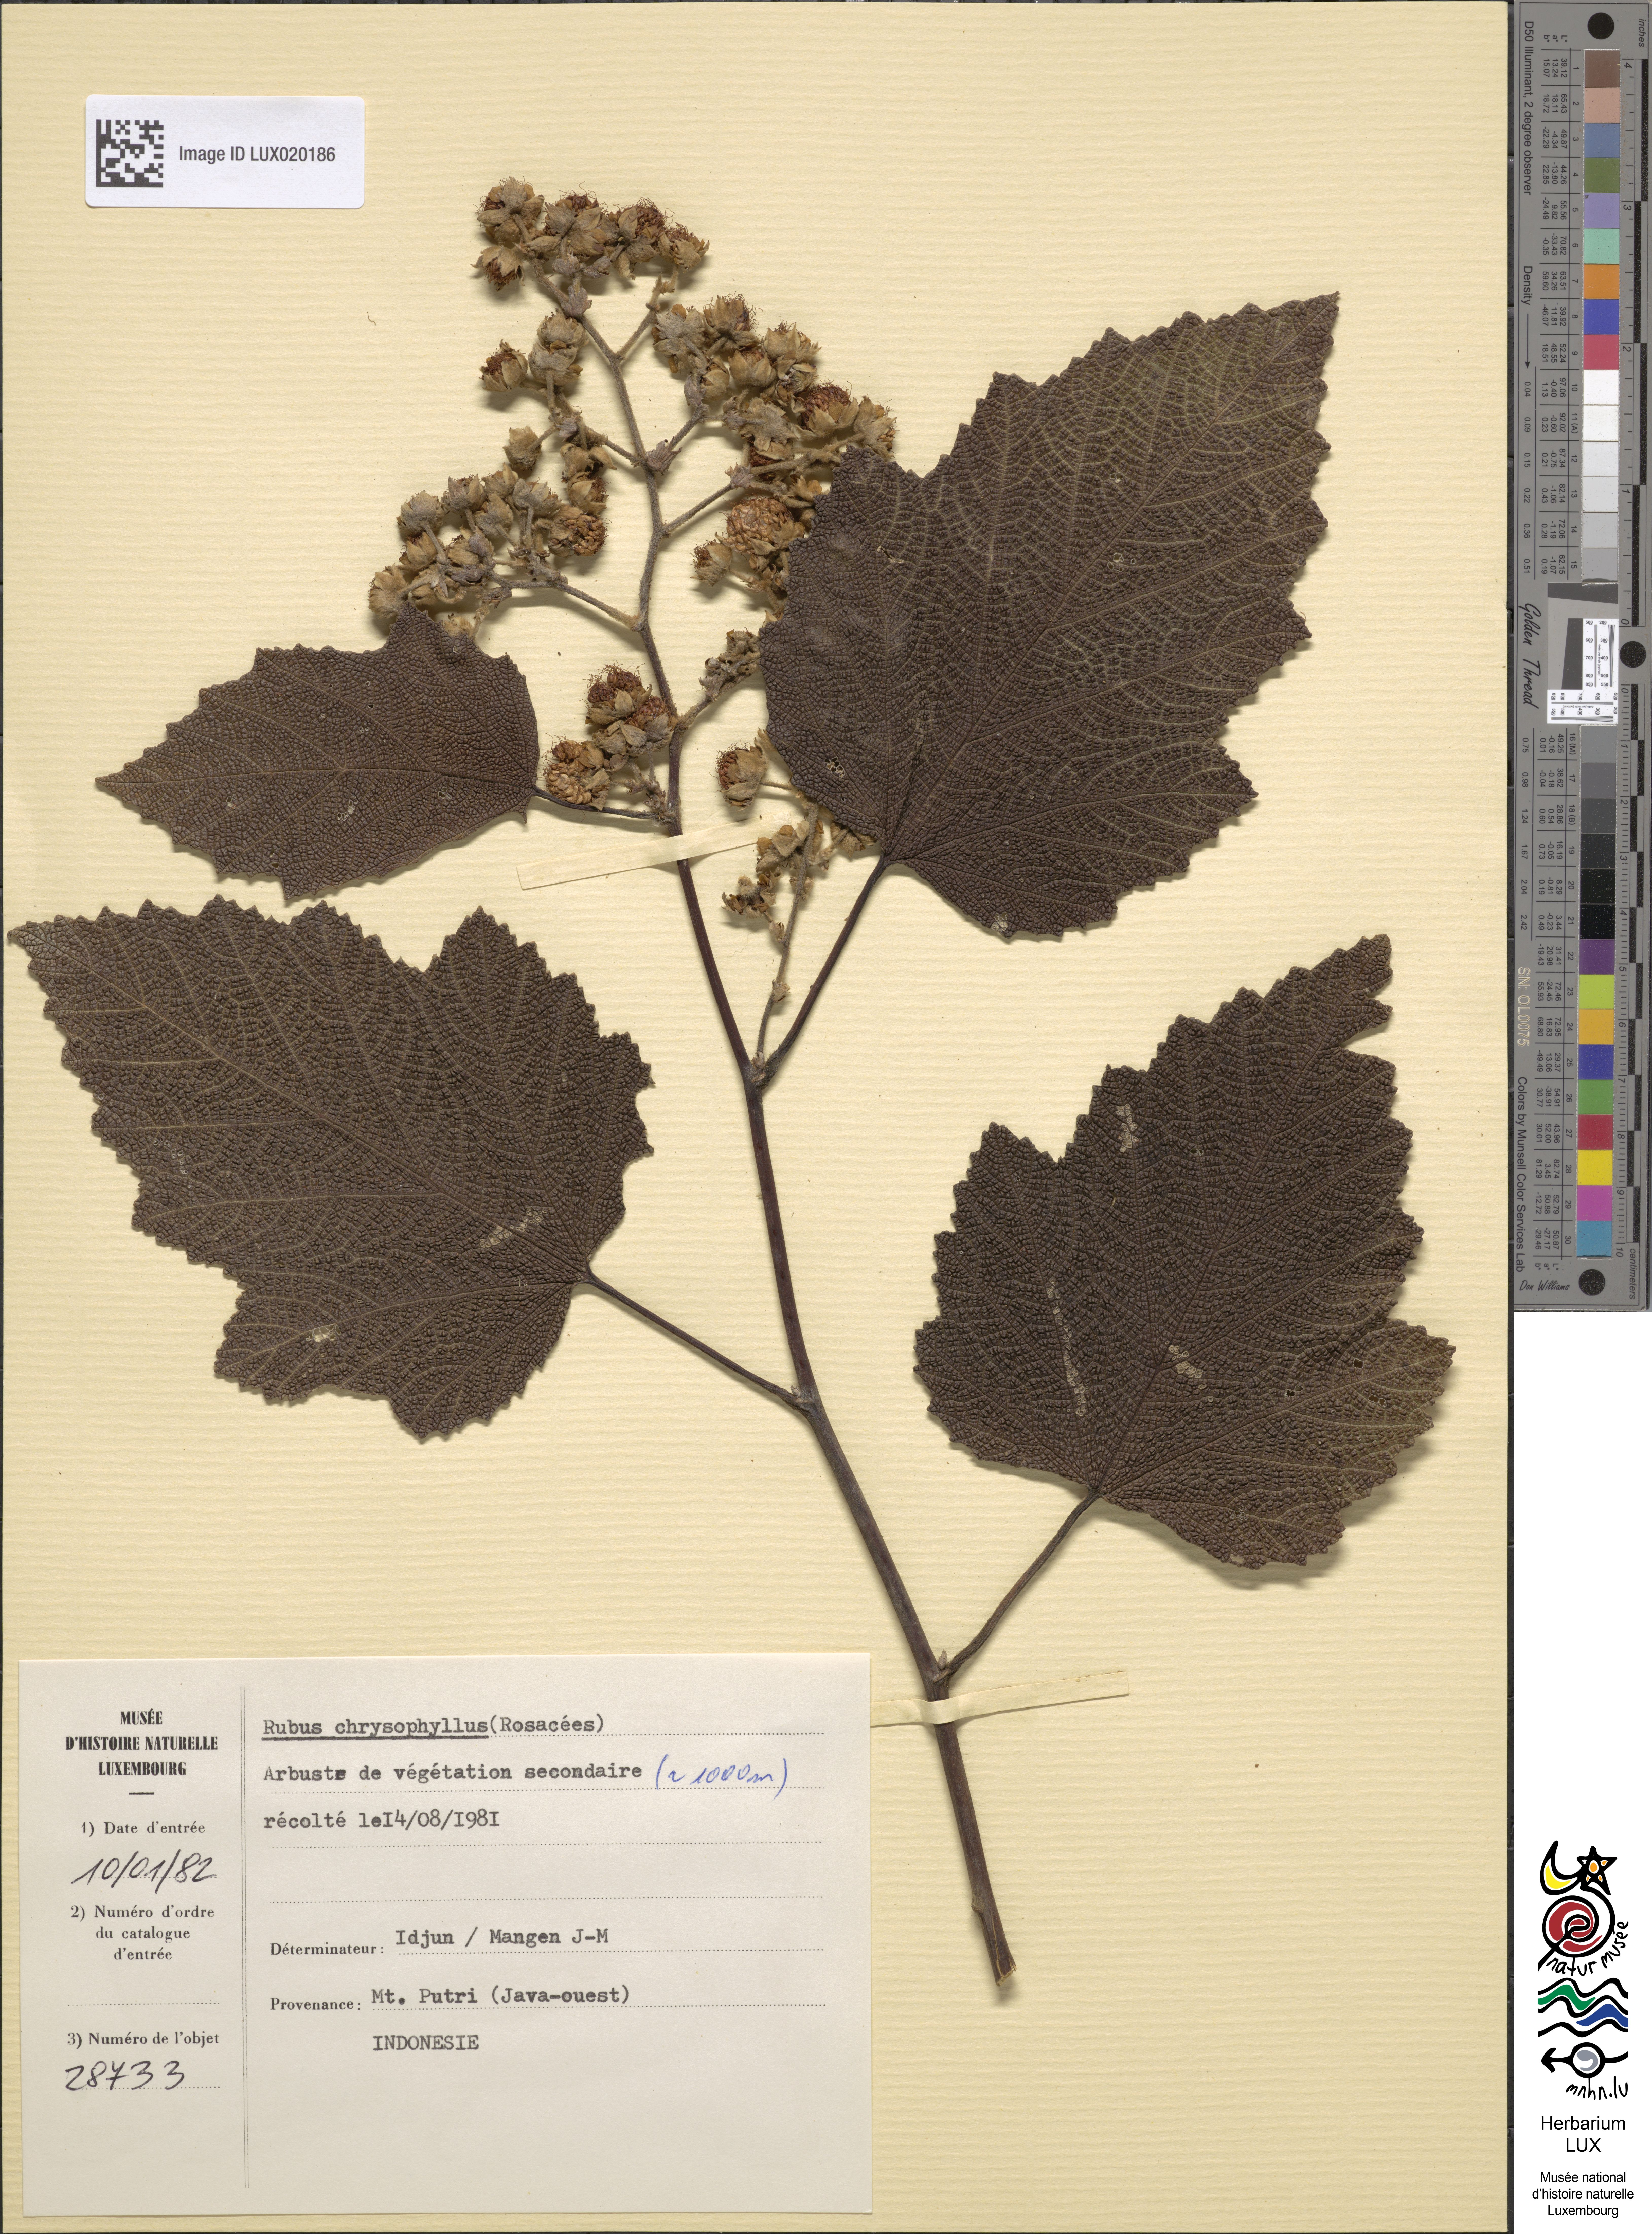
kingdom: Plantae
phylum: Tracheophyta
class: Magnoliopsida
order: Rosales
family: Rosaceae
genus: Rubus
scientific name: Rubus chrysophyllus
